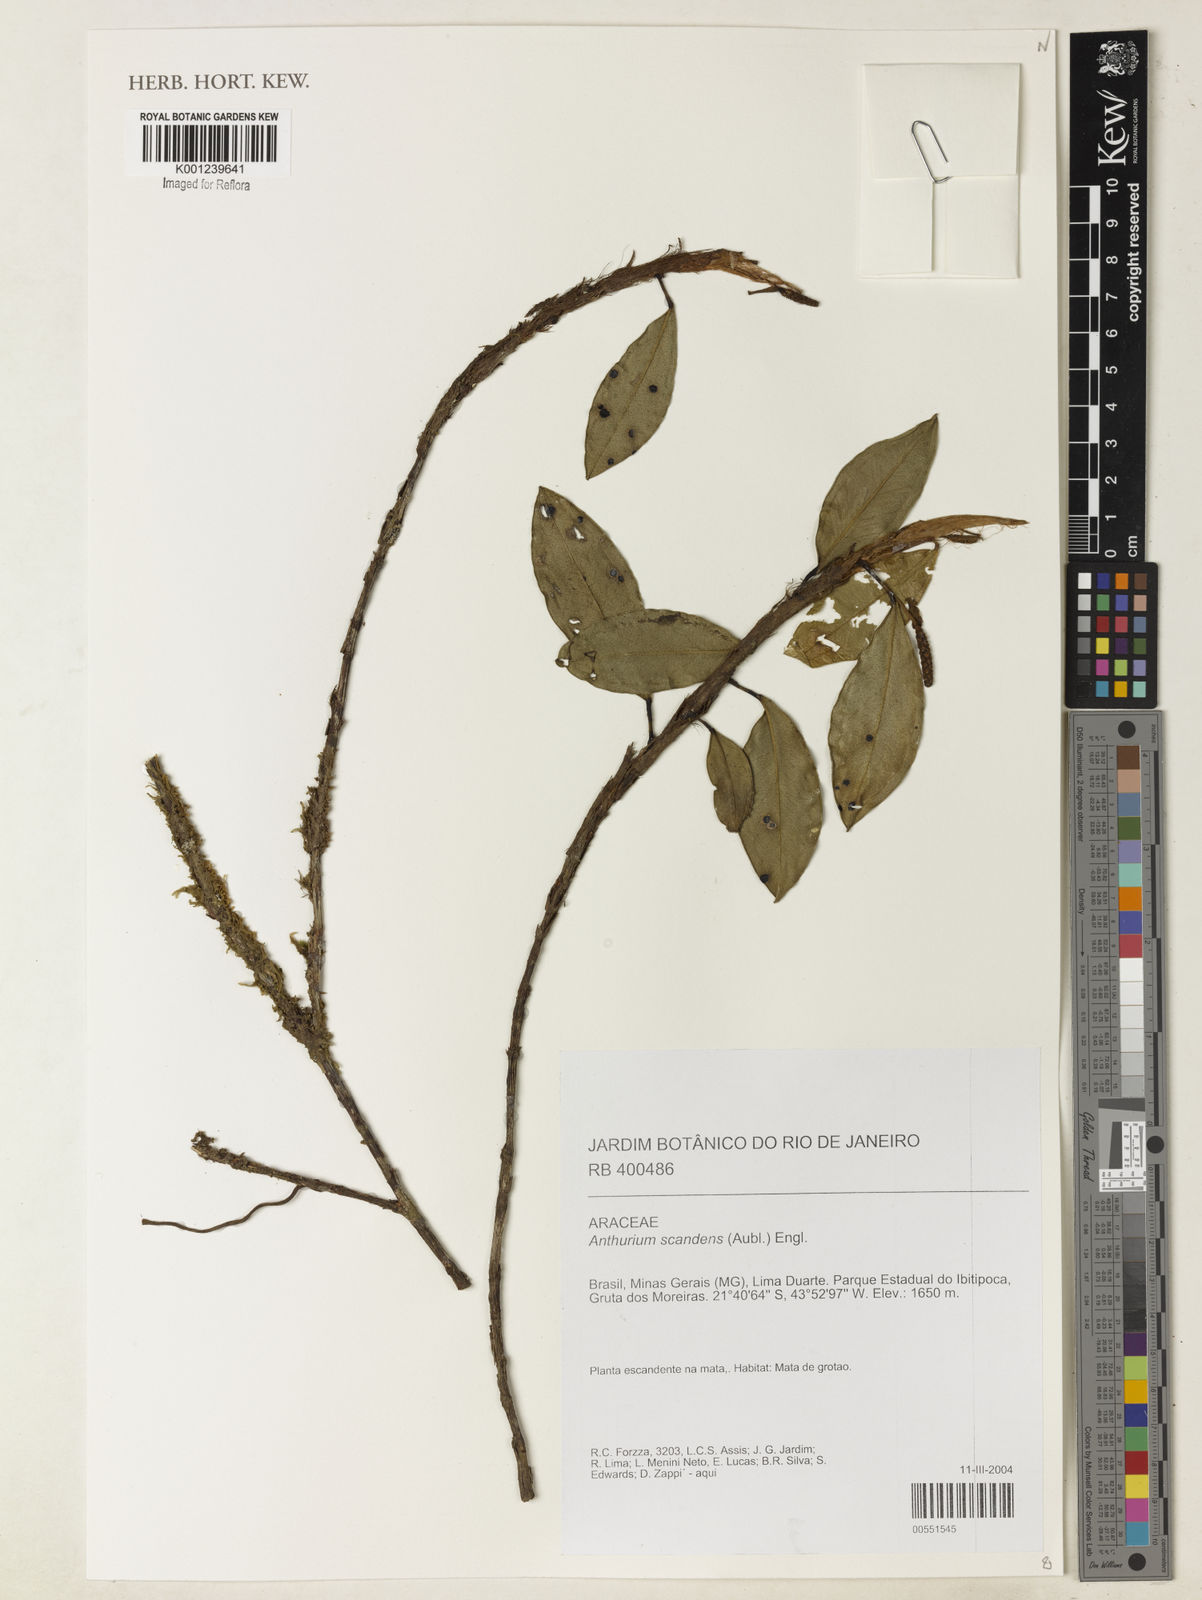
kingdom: Plantae
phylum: Tracheophyta
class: Liliopsida
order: Alismatales
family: Araceae
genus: Anthurium
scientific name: Anthurium scandens
